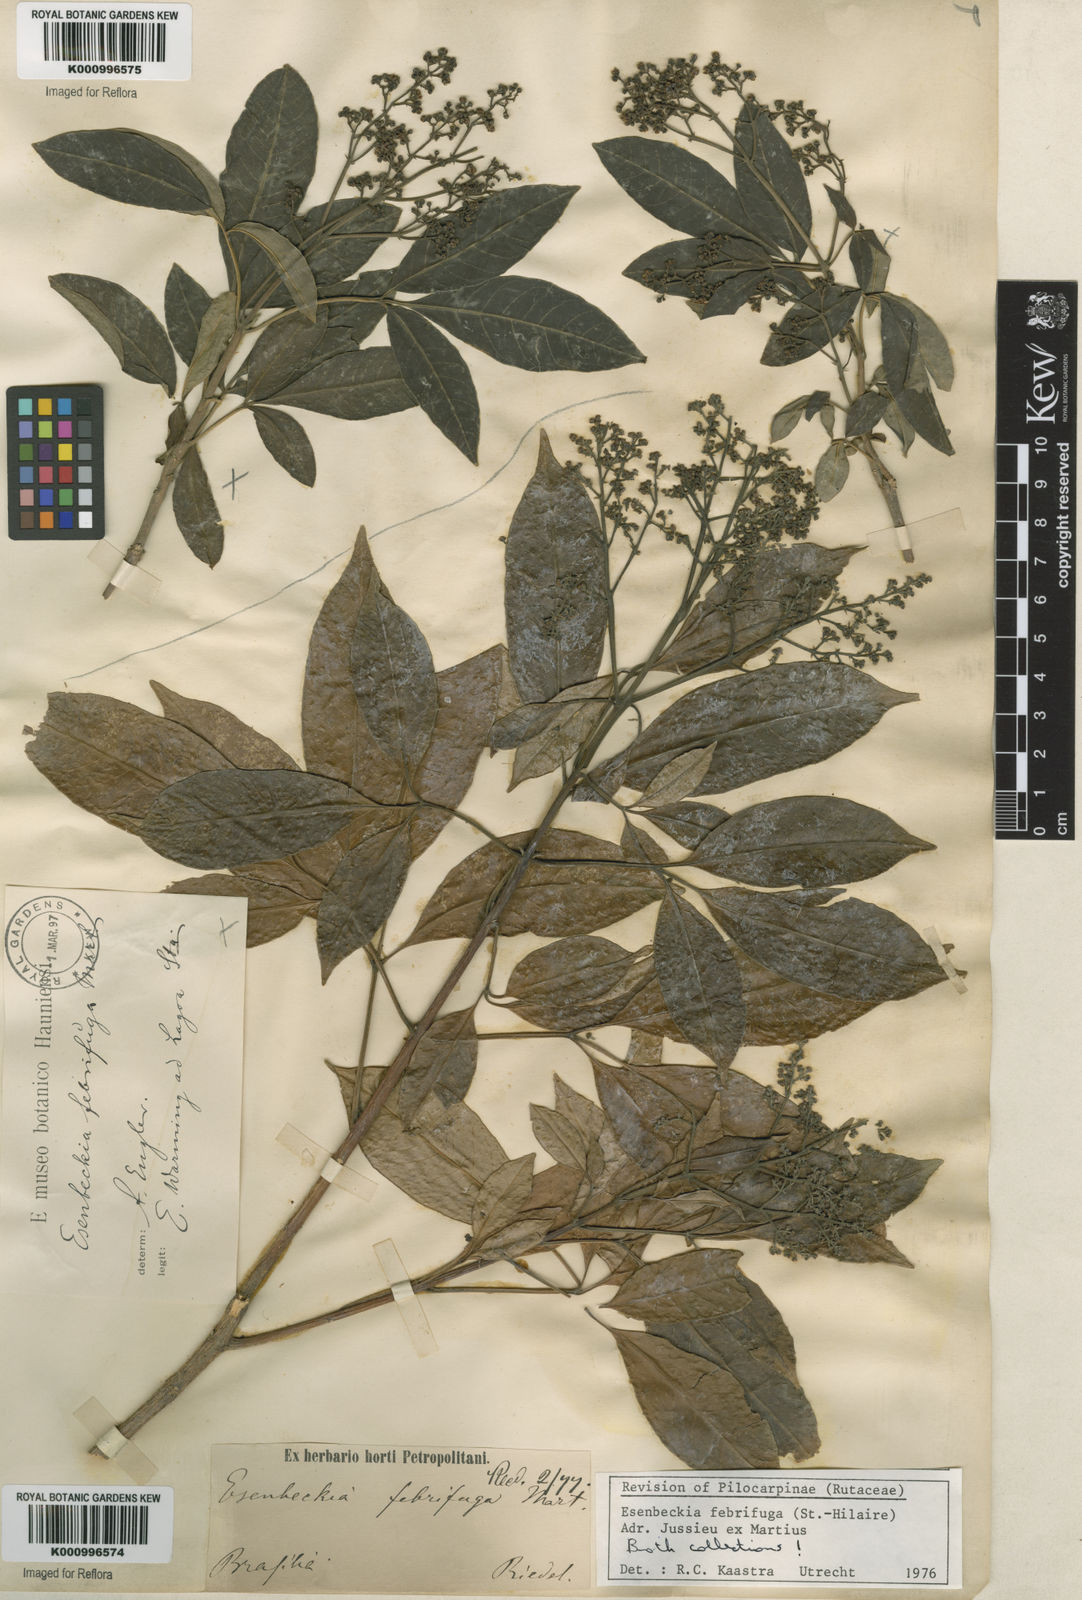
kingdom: Plantae
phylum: Tracheophyta
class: Magnoliopsida
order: Sapindales
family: Rutaceae
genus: Esenbeckia
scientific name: Esenbeckia febrifuga
